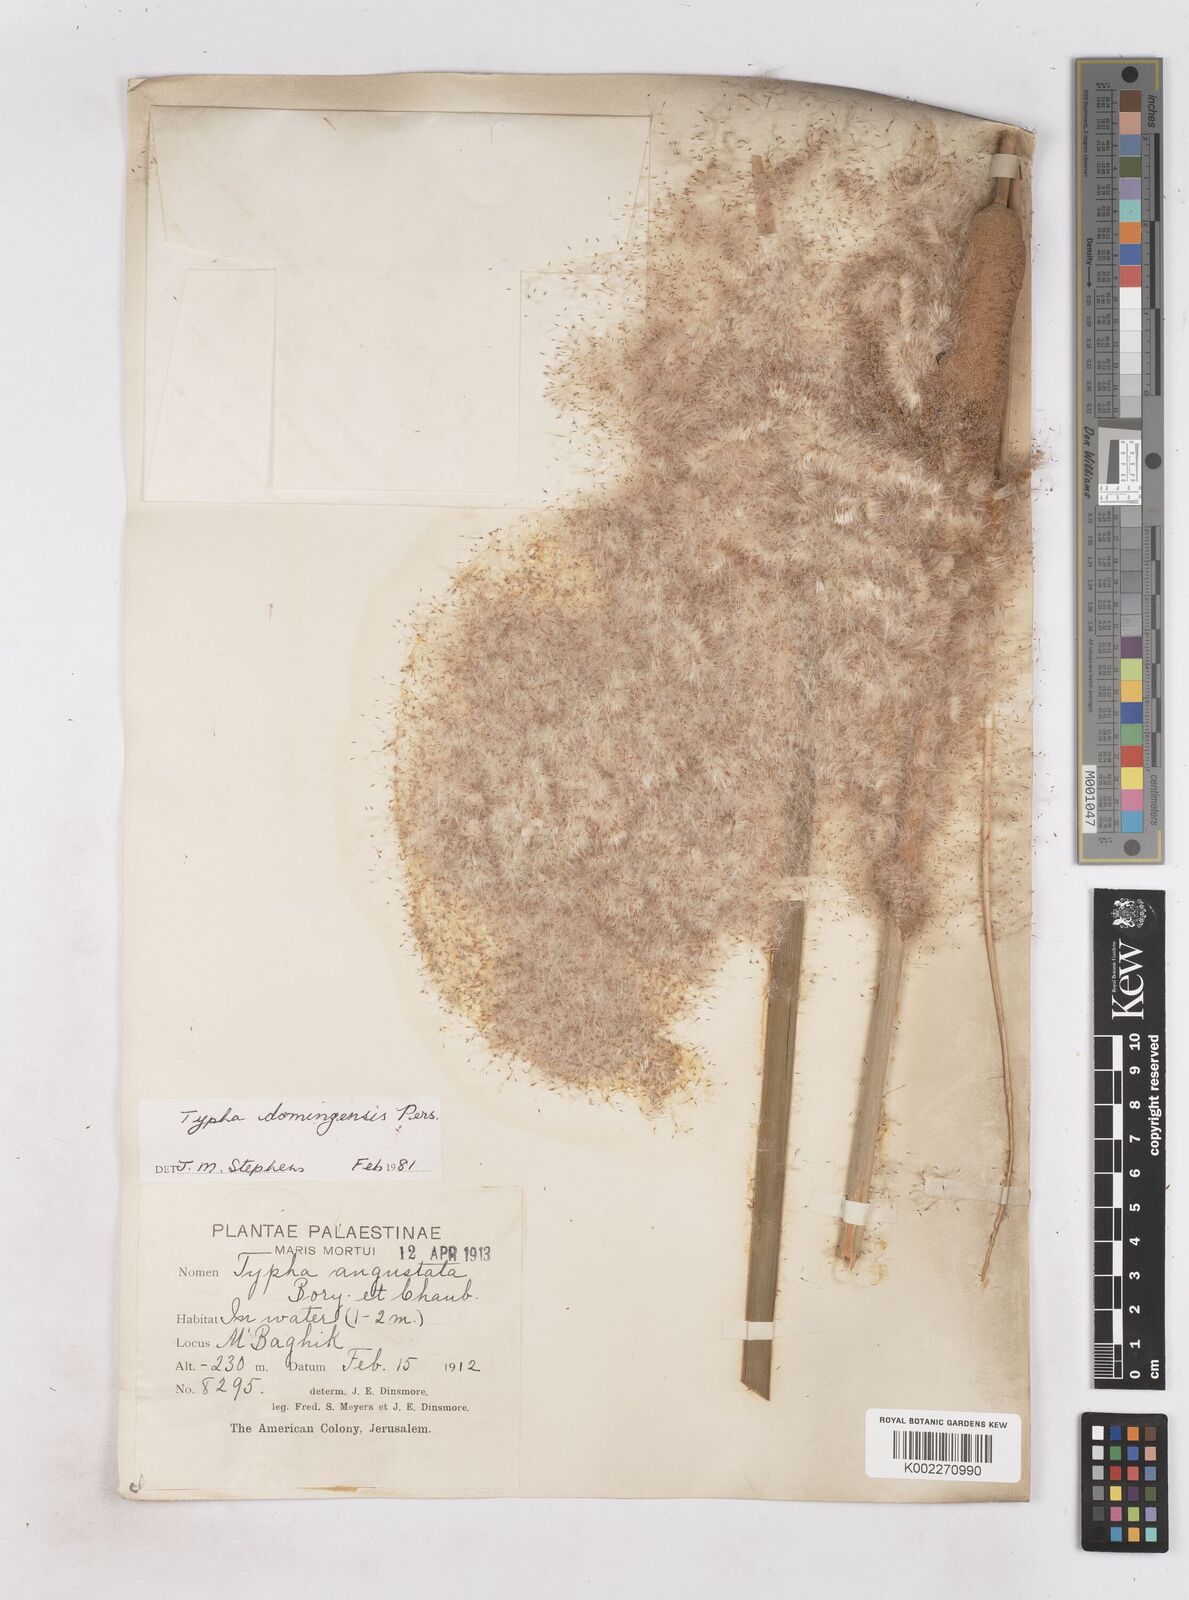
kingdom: Plantae
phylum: Tracheophyta
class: Liliopsida
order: Poales
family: Typhaceae
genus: Typha
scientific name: Typha domingensis
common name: Southern cattail
